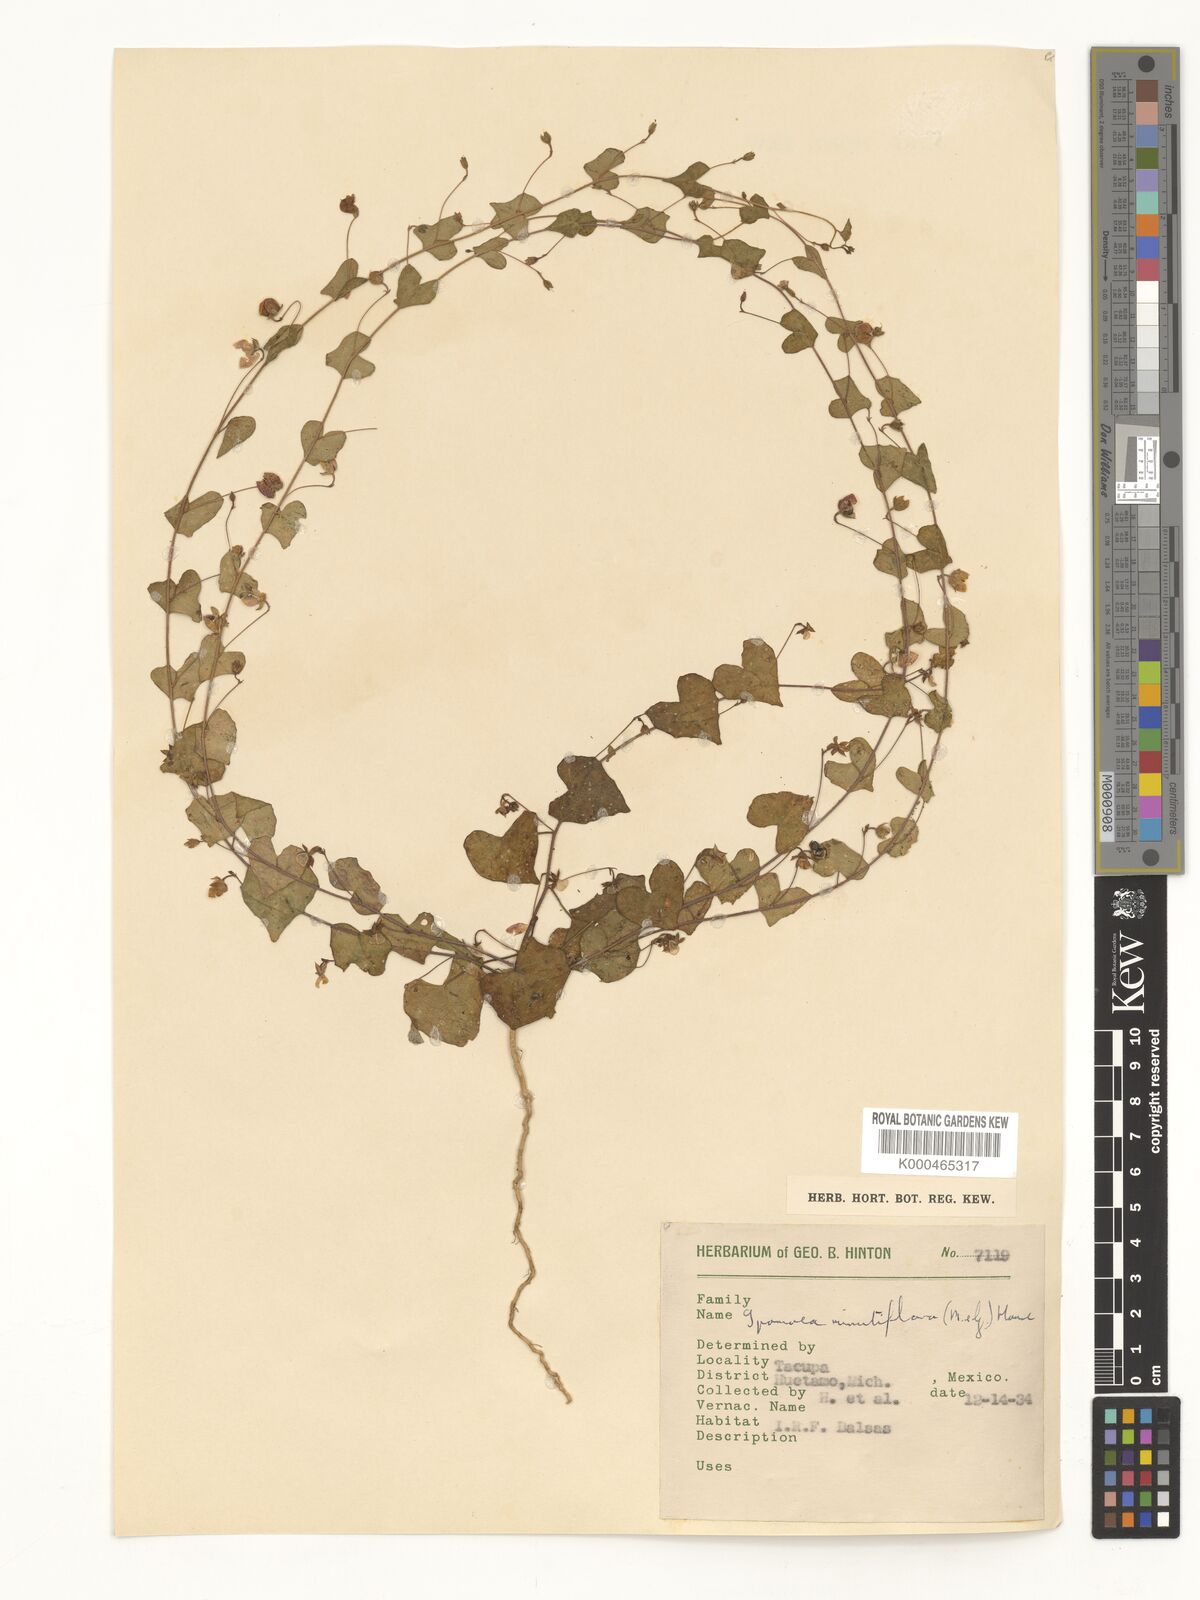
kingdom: Plantae
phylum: Tracheophyta
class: Magnoliopsida
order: Solanales
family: Convolvulaceae
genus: Ipomoea
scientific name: Ipomoea minutiflora
